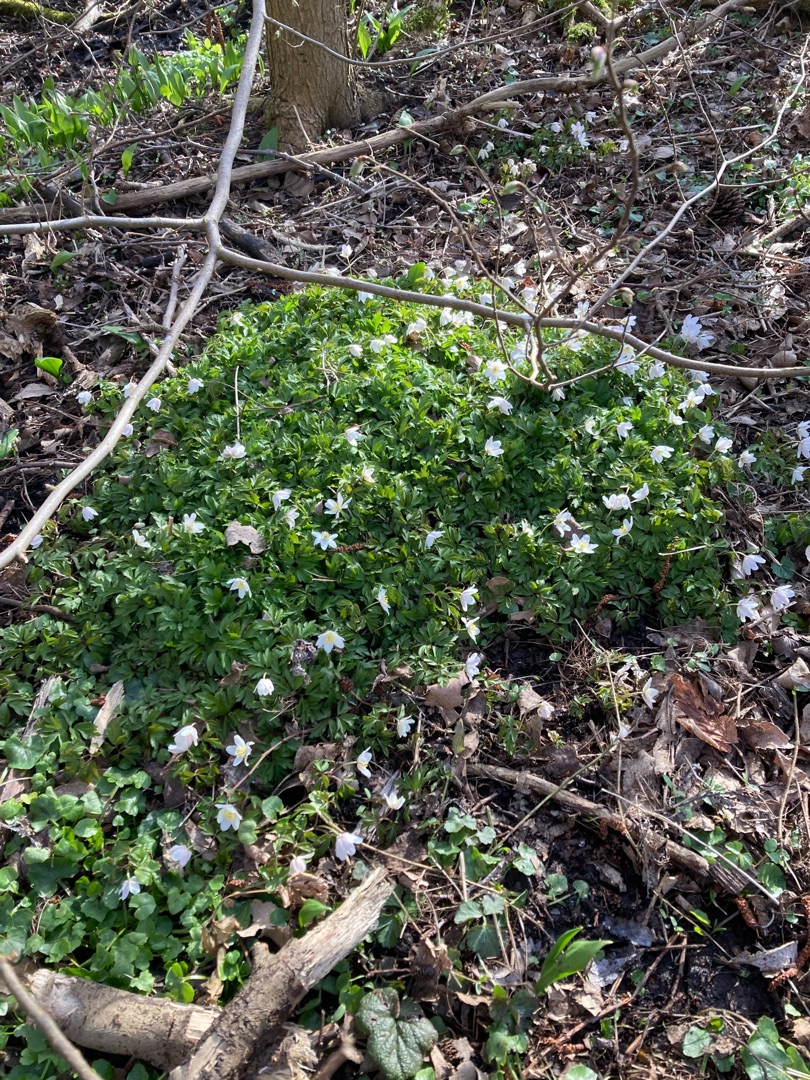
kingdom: Plantae
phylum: Tracheophyta
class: Magnoliopsida
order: Ranunculales
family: Ranunculaceae
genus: Anemone
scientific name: Anemone nemorosa
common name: Hvid anemone
